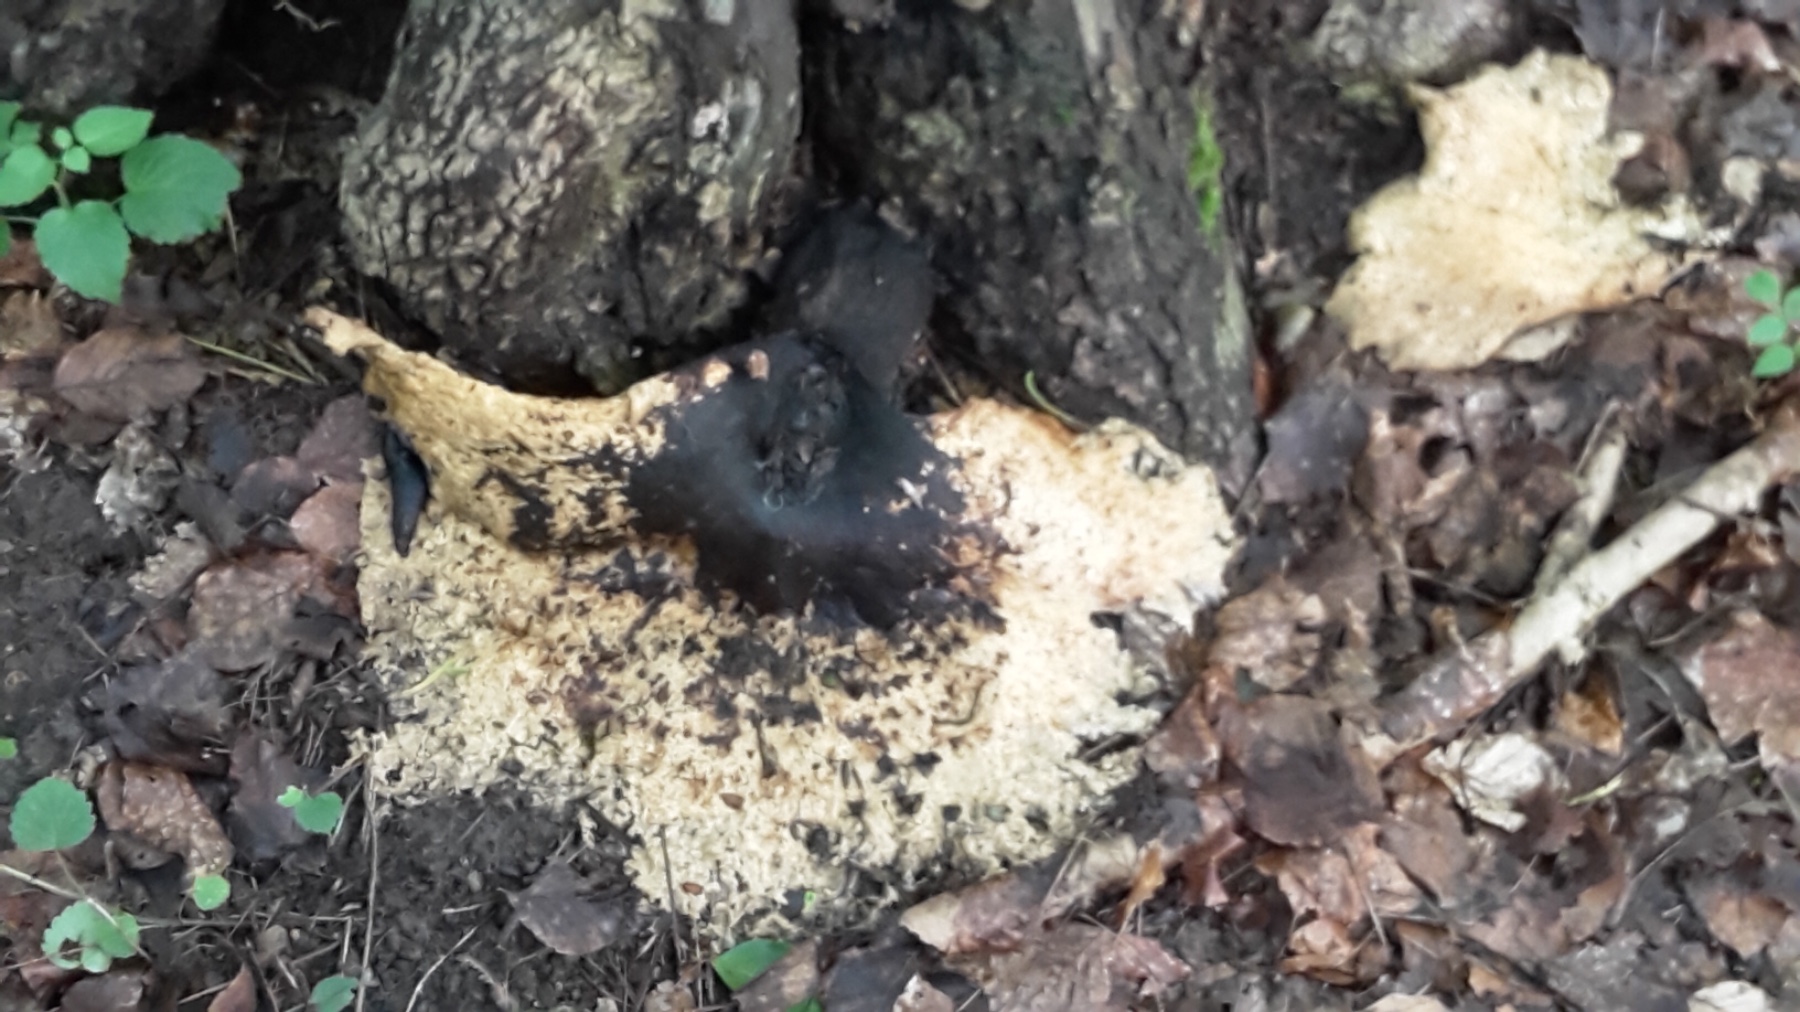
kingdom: Fungi
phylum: Basidiomycota
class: Agaricomycetes
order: Polyporales
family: Polyporaceae
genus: Cerioporus
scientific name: Cerioporus squamosus
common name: skællet stilkporesvamp
